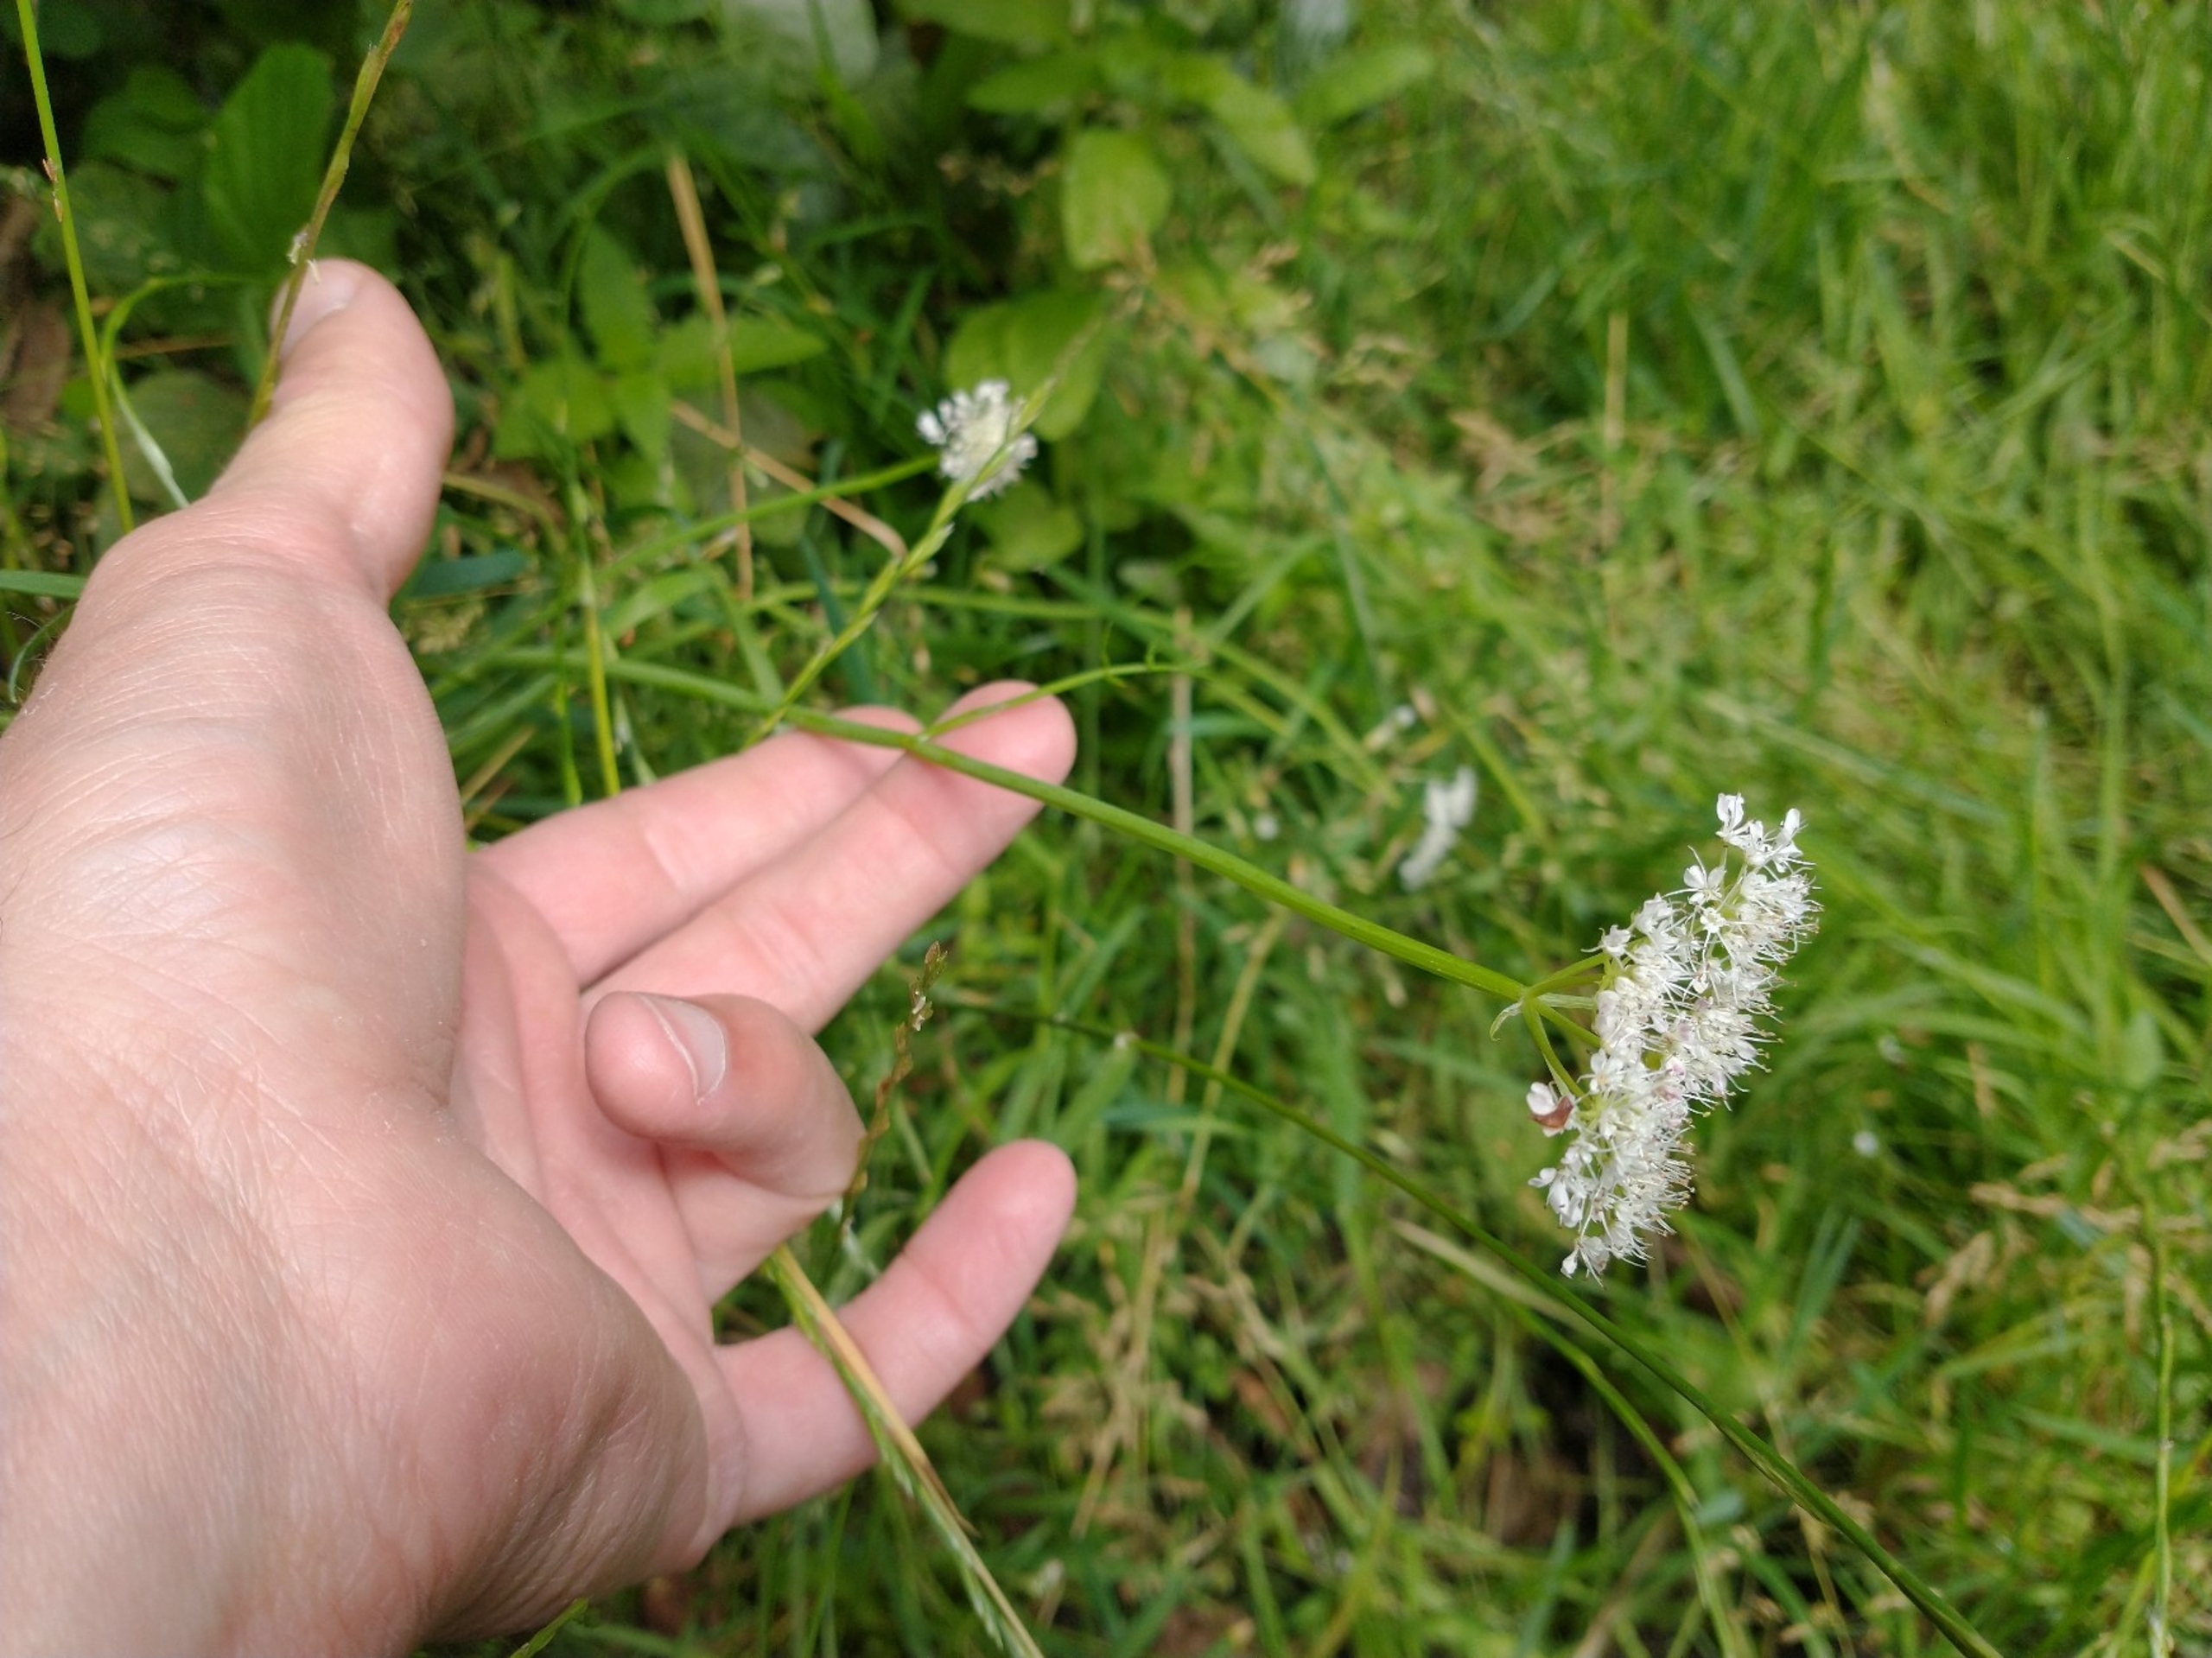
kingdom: Plantae
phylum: Tracheophyta
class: Magnoliopsida
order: Apiales
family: Apiaceae
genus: Oenanthe
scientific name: Oenanthe fistulosa
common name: Vand-klaseskærm
